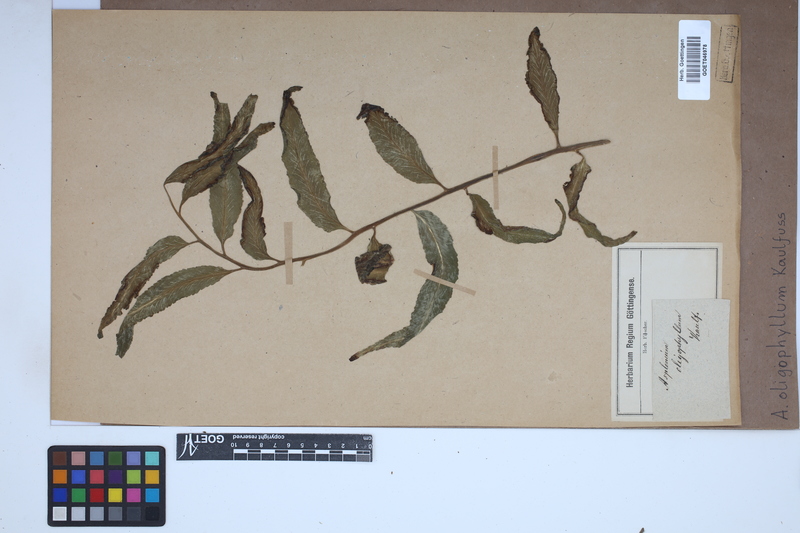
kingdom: Plantae
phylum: Tracheophyta
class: Polypodiopsida
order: Polypodiales
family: Aspleniaceae
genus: Asplenium
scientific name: Asplenium oligophyllum
